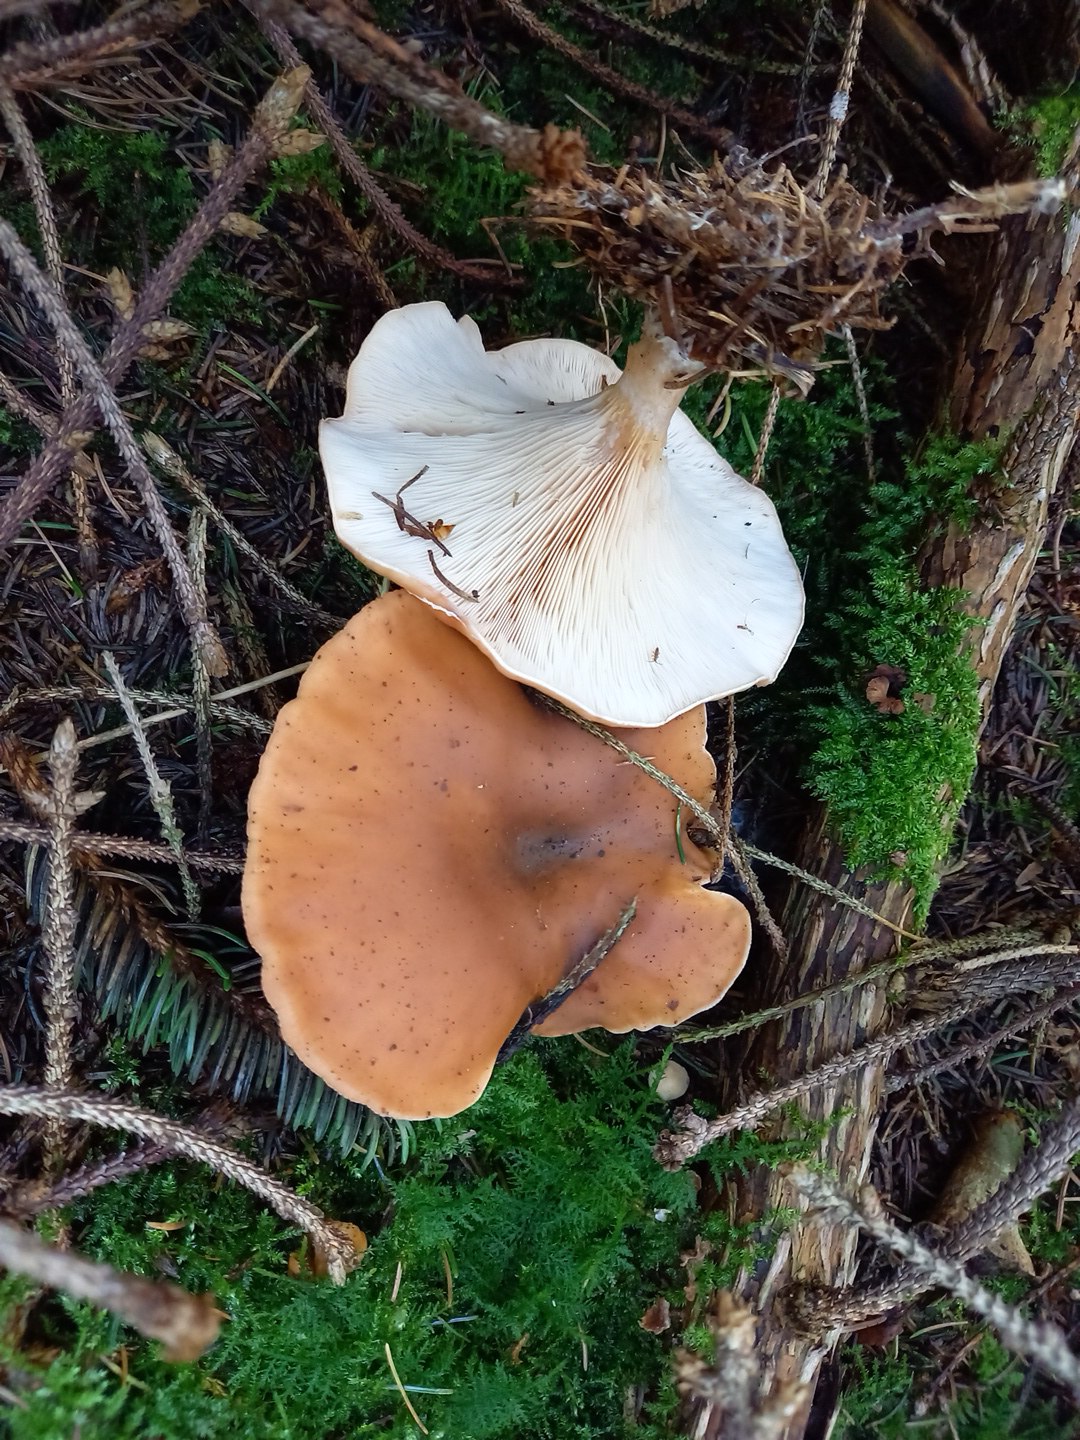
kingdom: Fungi
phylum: Basidiomycota
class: Agaricomycetes
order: Agaricales
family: Tricholomataceae
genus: Paralepista
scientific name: Paralepista flaccida
